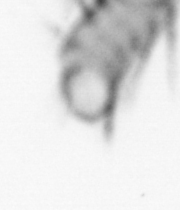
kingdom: Animalia
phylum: Annelida
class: Polychaeta
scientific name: Polychaeta
